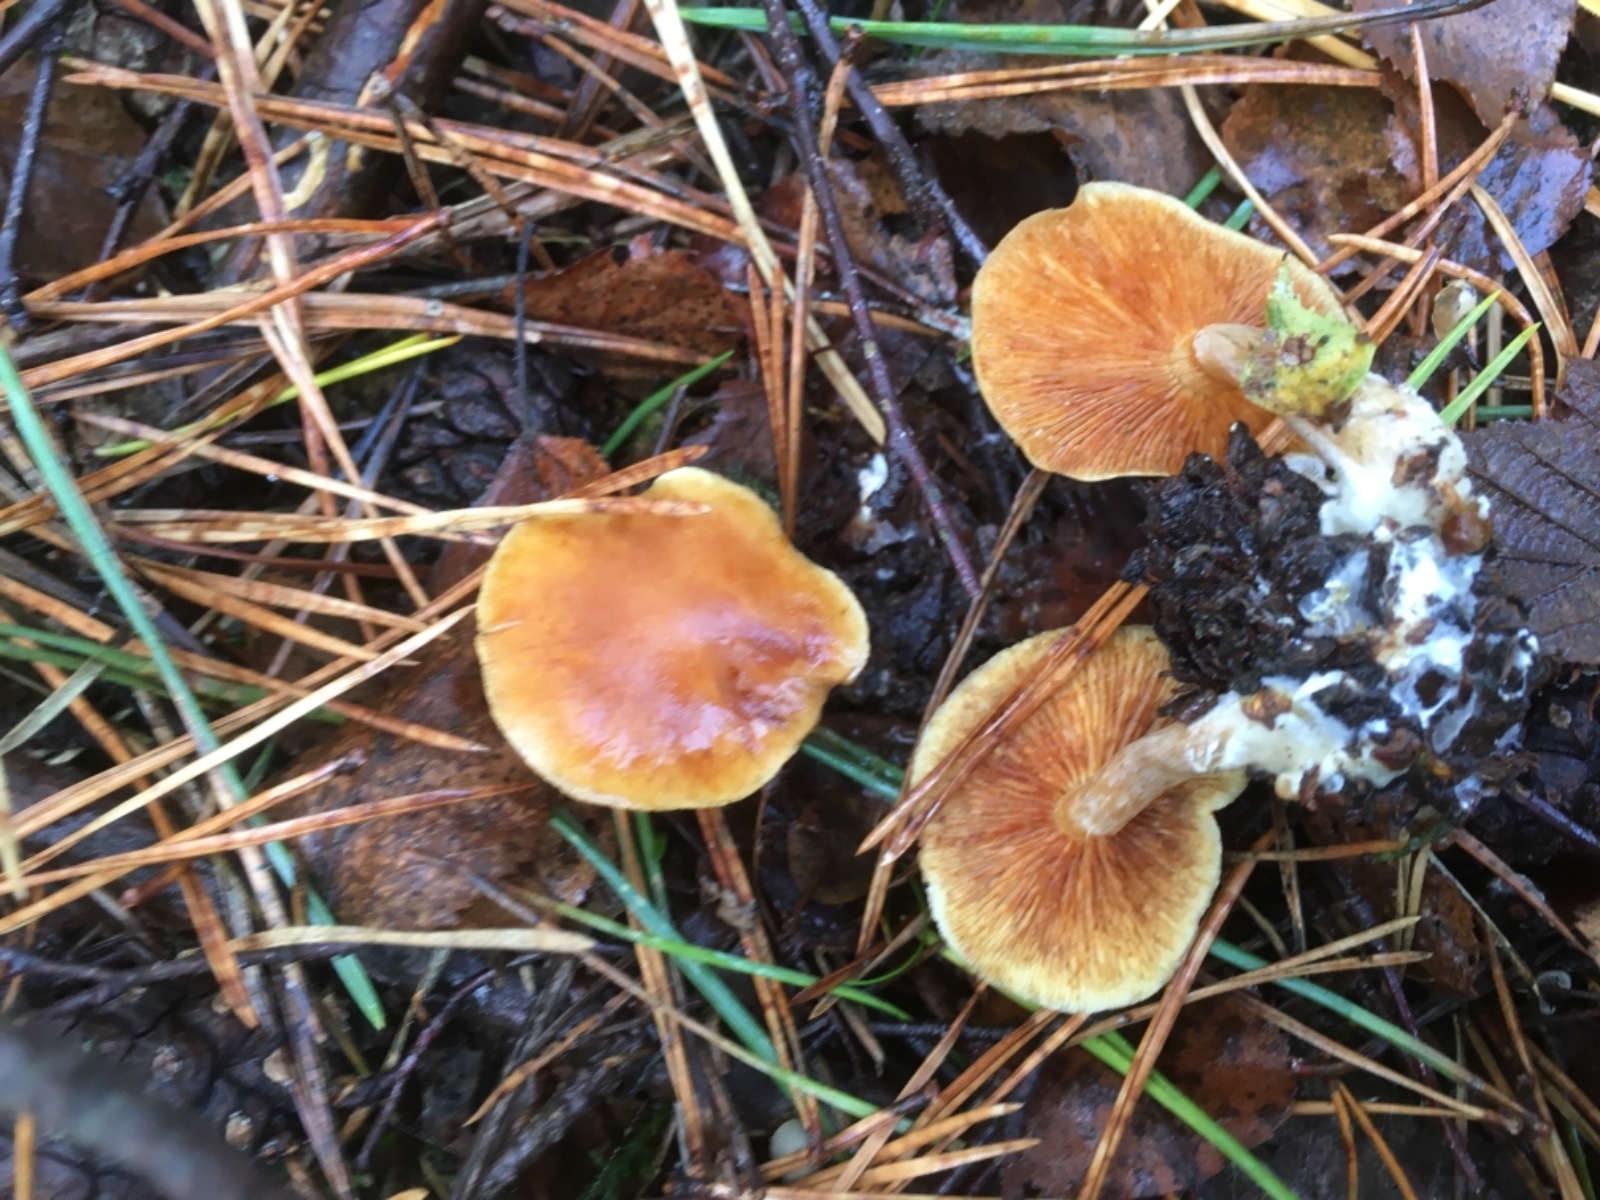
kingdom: Fungi
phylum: Basidiomycota
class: Agaricomycetes
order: Agaricales
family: Hymenogastraceae
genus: Gymnopilus
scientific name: Gymnopilus penetrans
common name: plettet flammehat
